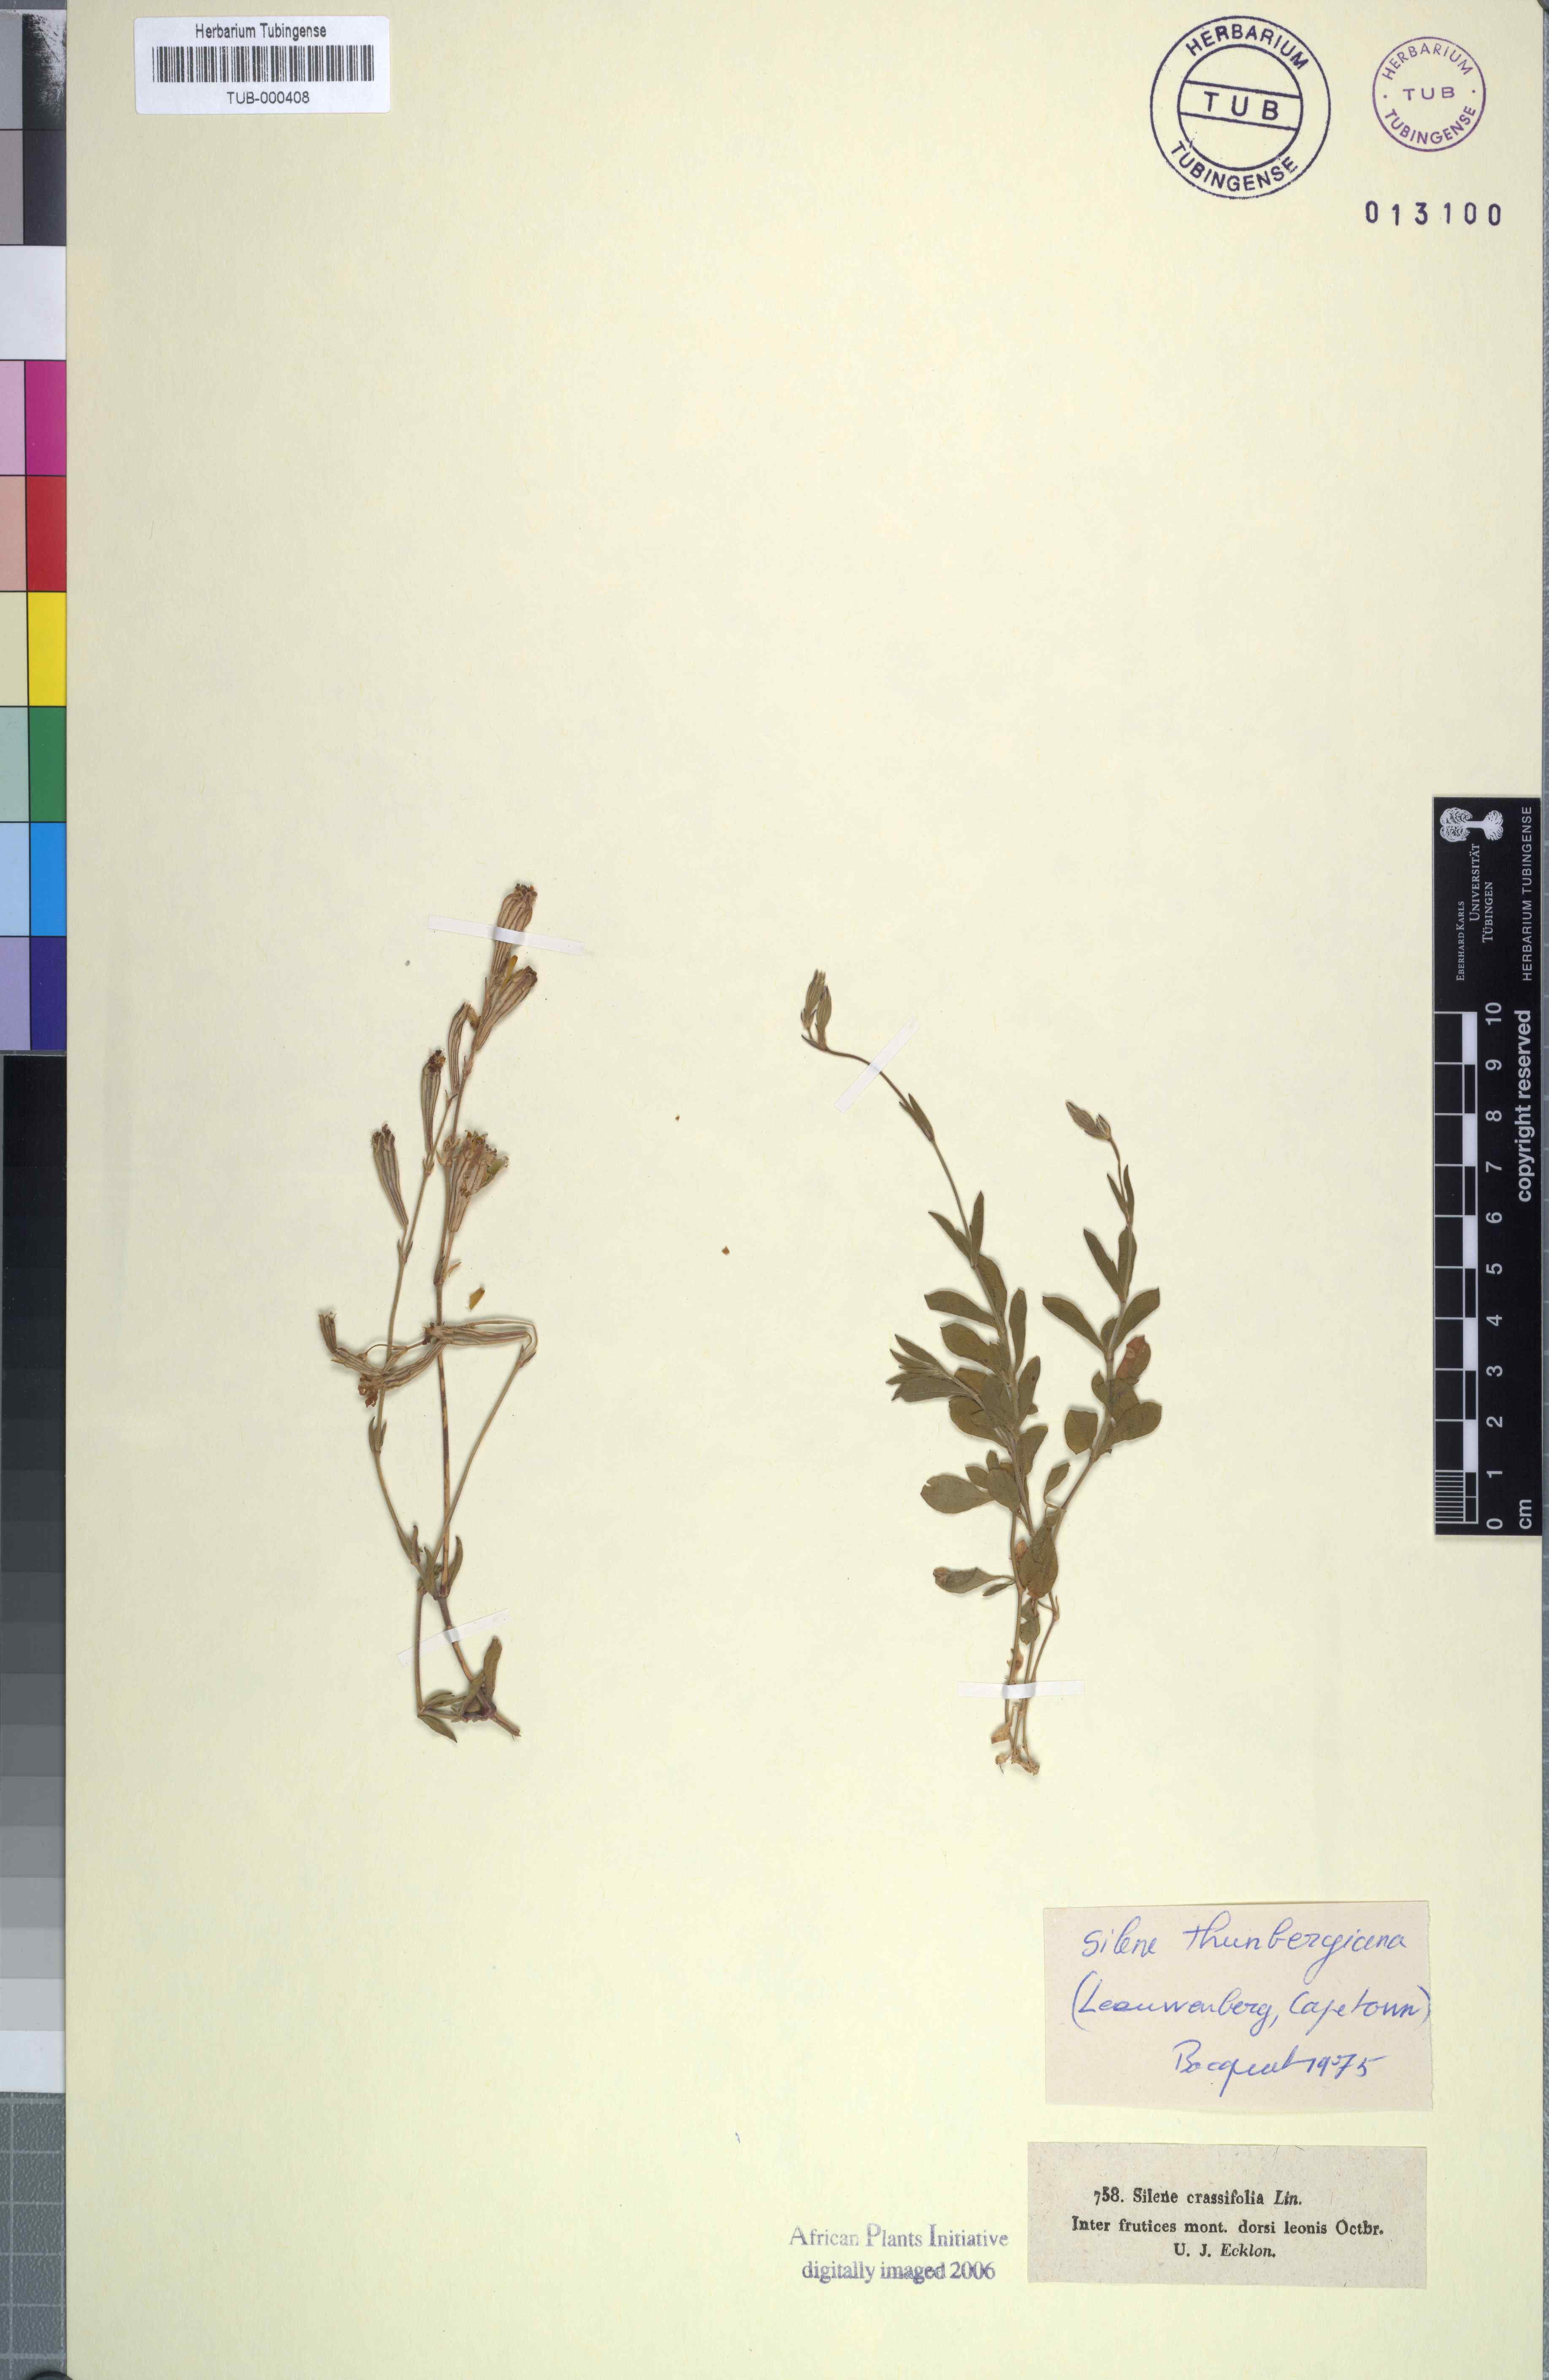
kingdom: Plantae
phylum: Tracheophyta
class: Magnoliopsida
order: Caryophyllales
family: Caryophyllaceae
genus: Silene
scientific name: Silene burchellii
